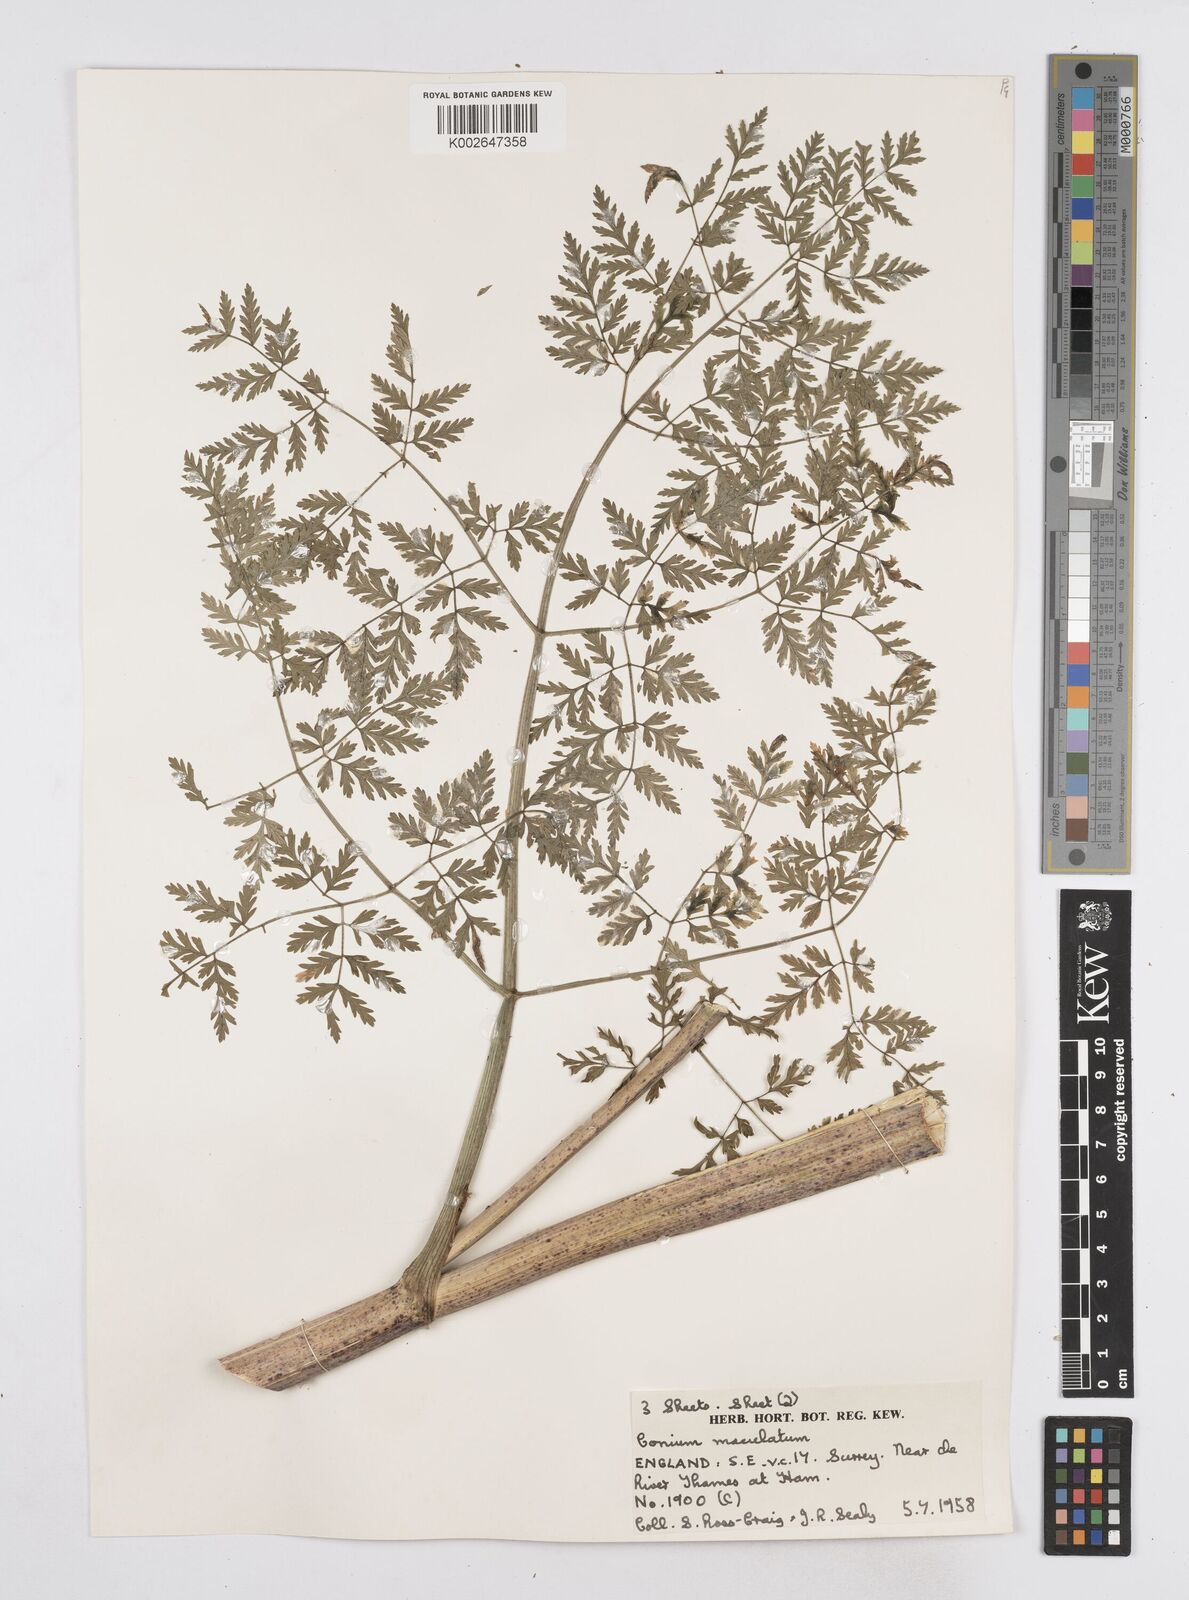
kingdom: Plantae
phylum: Tracheophyta
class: Magnoliopsida
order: Apiales
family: Apiaceae
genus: Conium
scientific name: Conium maculatum
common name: Hemlock
